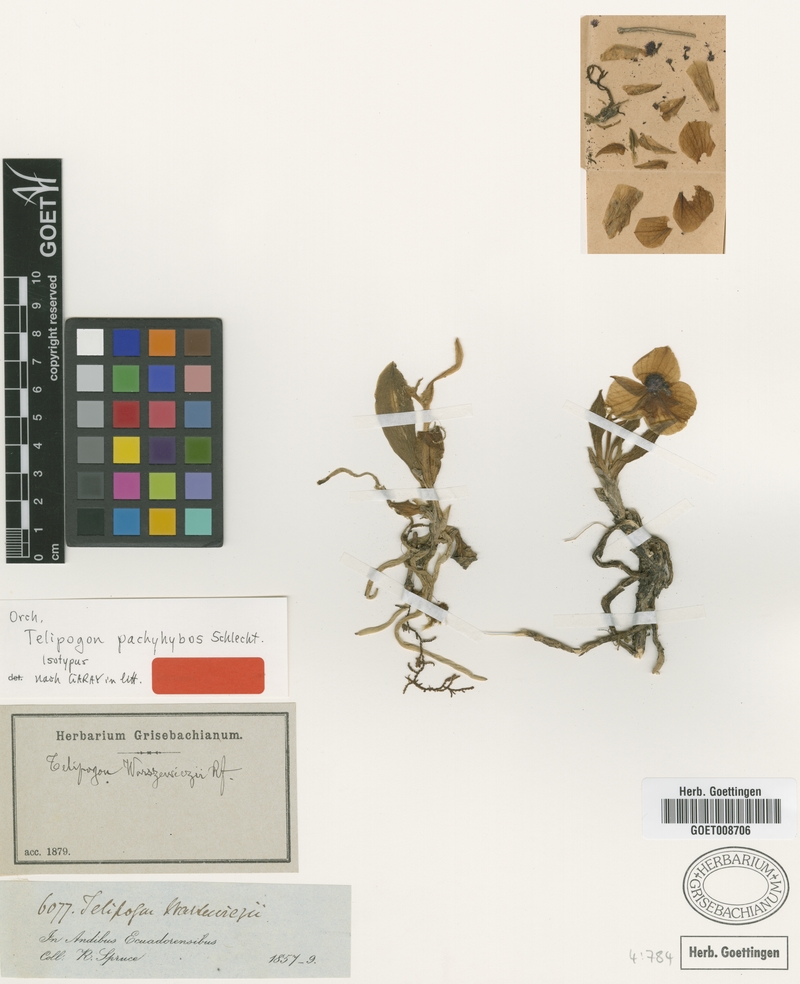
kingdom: Plantae
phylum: Tracheophyta
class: Liliopsida
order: Asparagales
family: Orchidaceae
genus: Telipogon
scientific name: Telipogon obovatus
